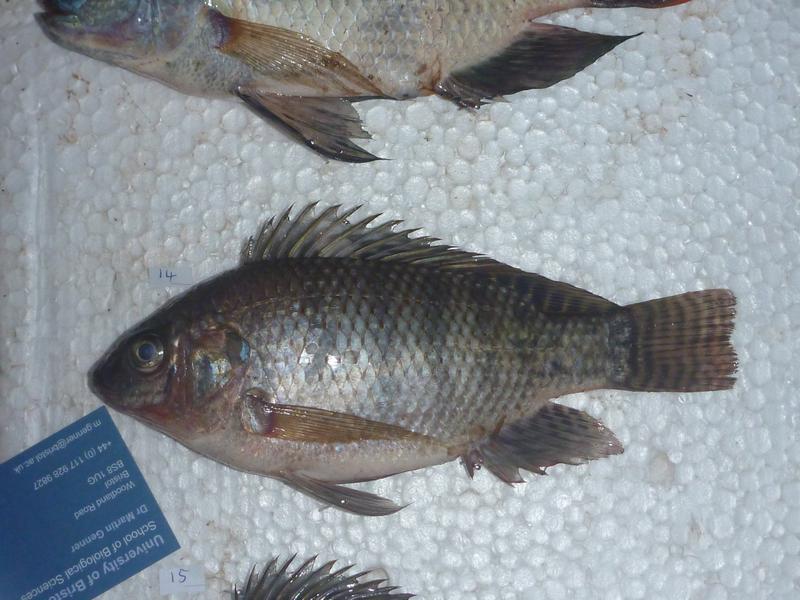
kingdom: Animalia
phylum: Chordata
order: Perciformes
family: Cichlidae
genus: Oreochromis
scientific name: Oreochromis niloticus
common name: Nile tilapia
